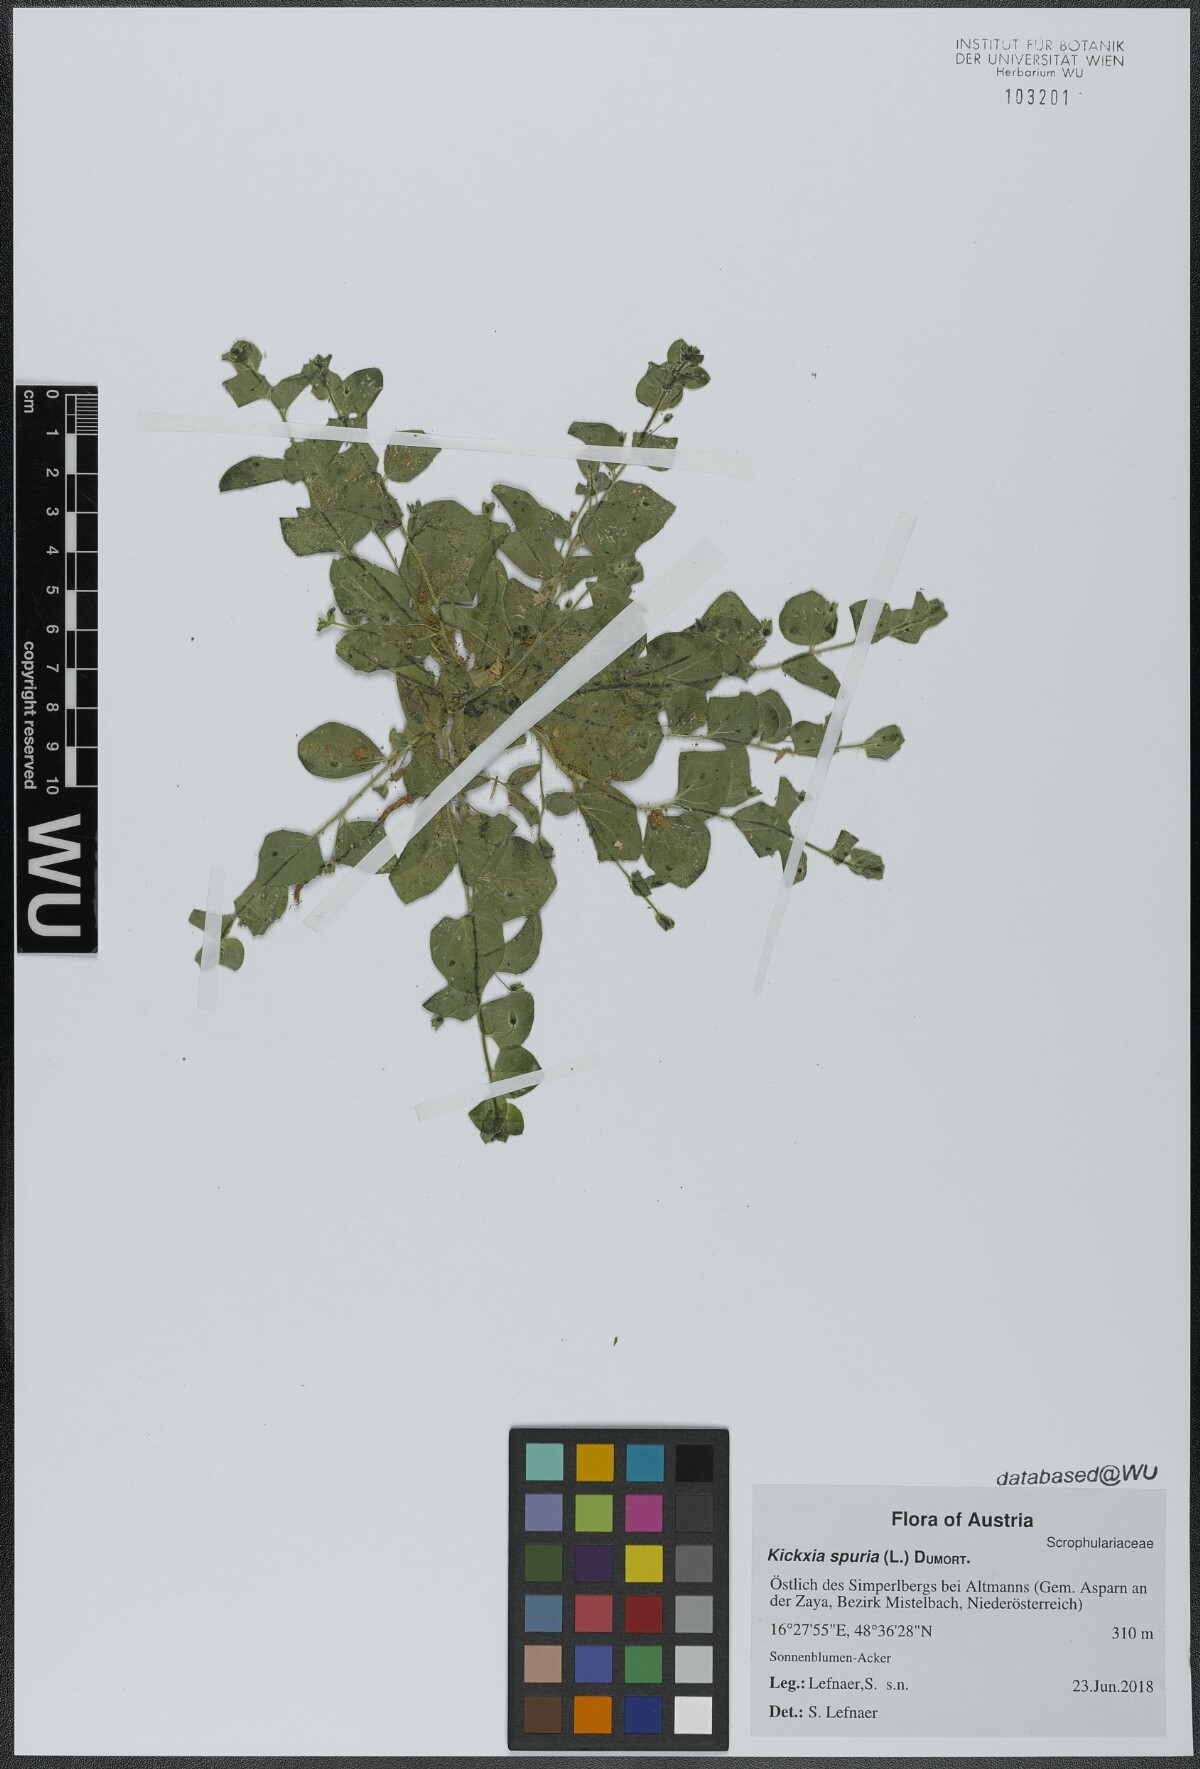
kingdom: Plantae
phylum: Tracheophyta
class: Magnoliopsida
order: Lamiales
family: Plantaginaceae
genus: Kickxia
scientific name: Kickxia spuria
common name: Round-leaved fluellen
